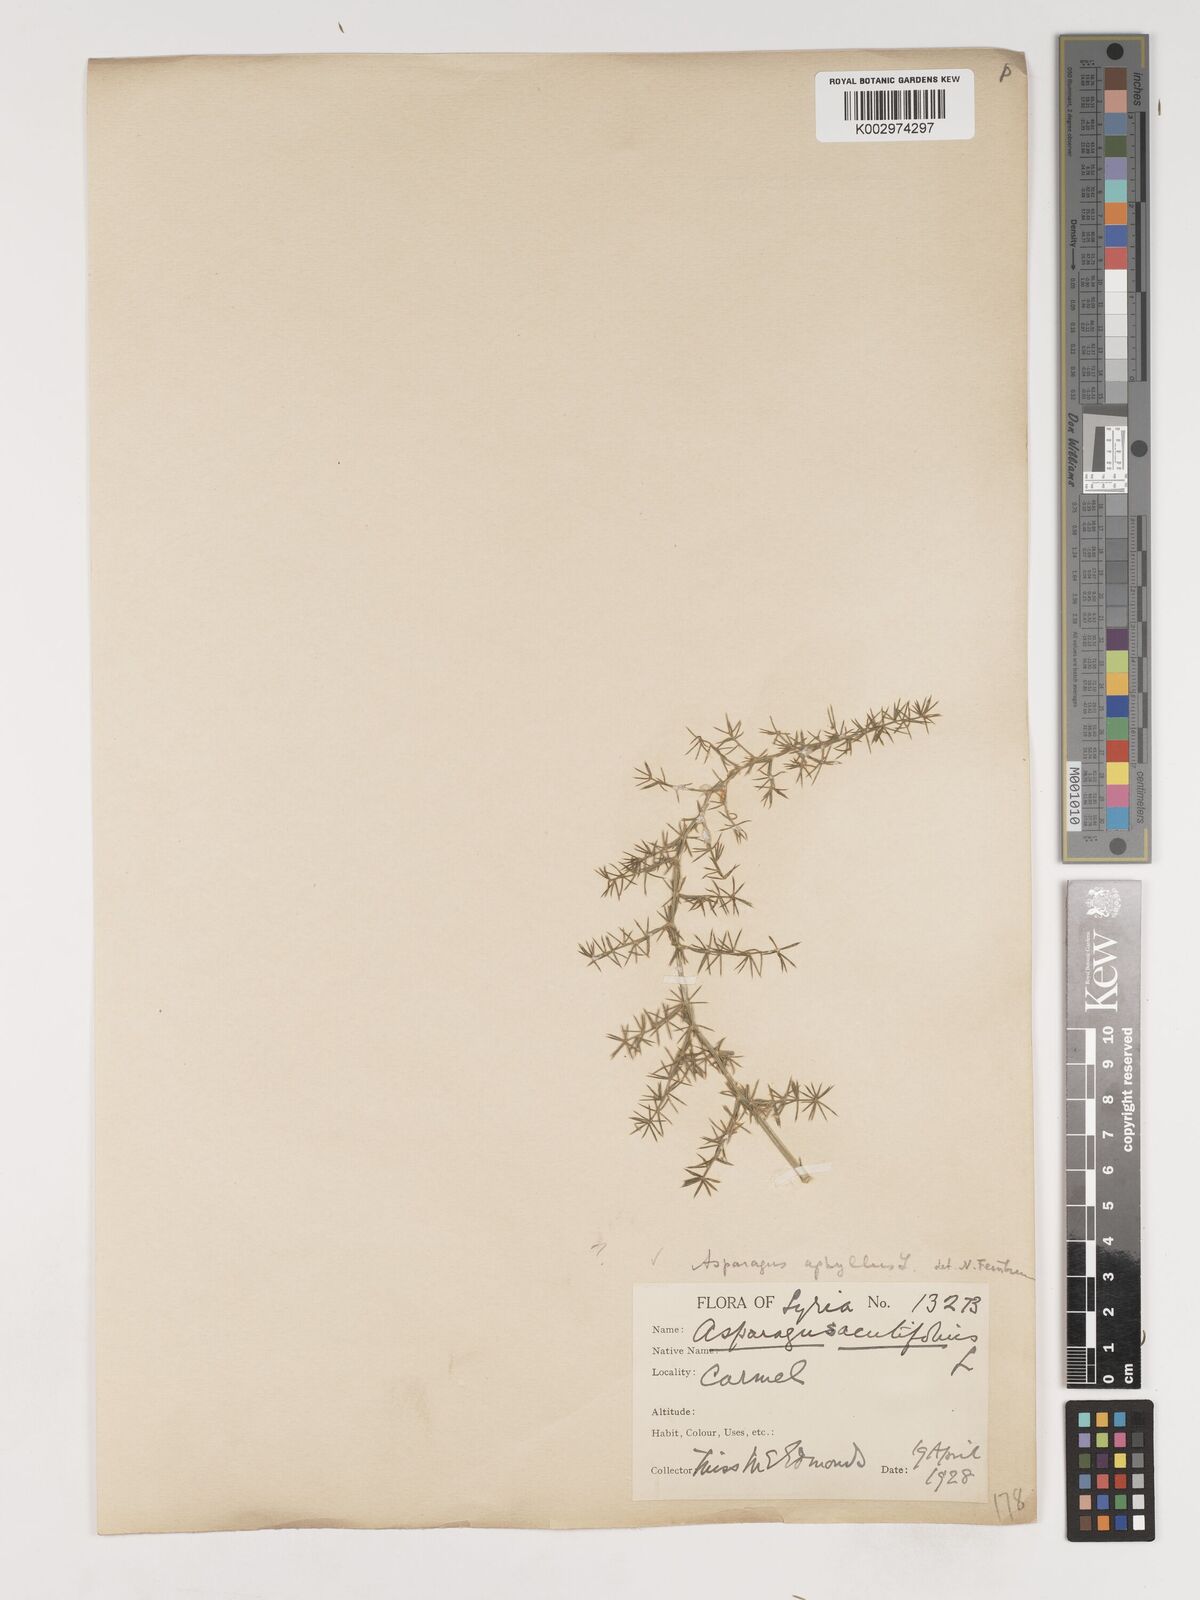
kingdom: Plantae
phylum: Tracheophyta
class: Liliopsida
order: Asparagales
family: Asparagaceae
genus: Asparagus
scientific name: Asparagus aphyllus
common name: Mediterranean asparagus
